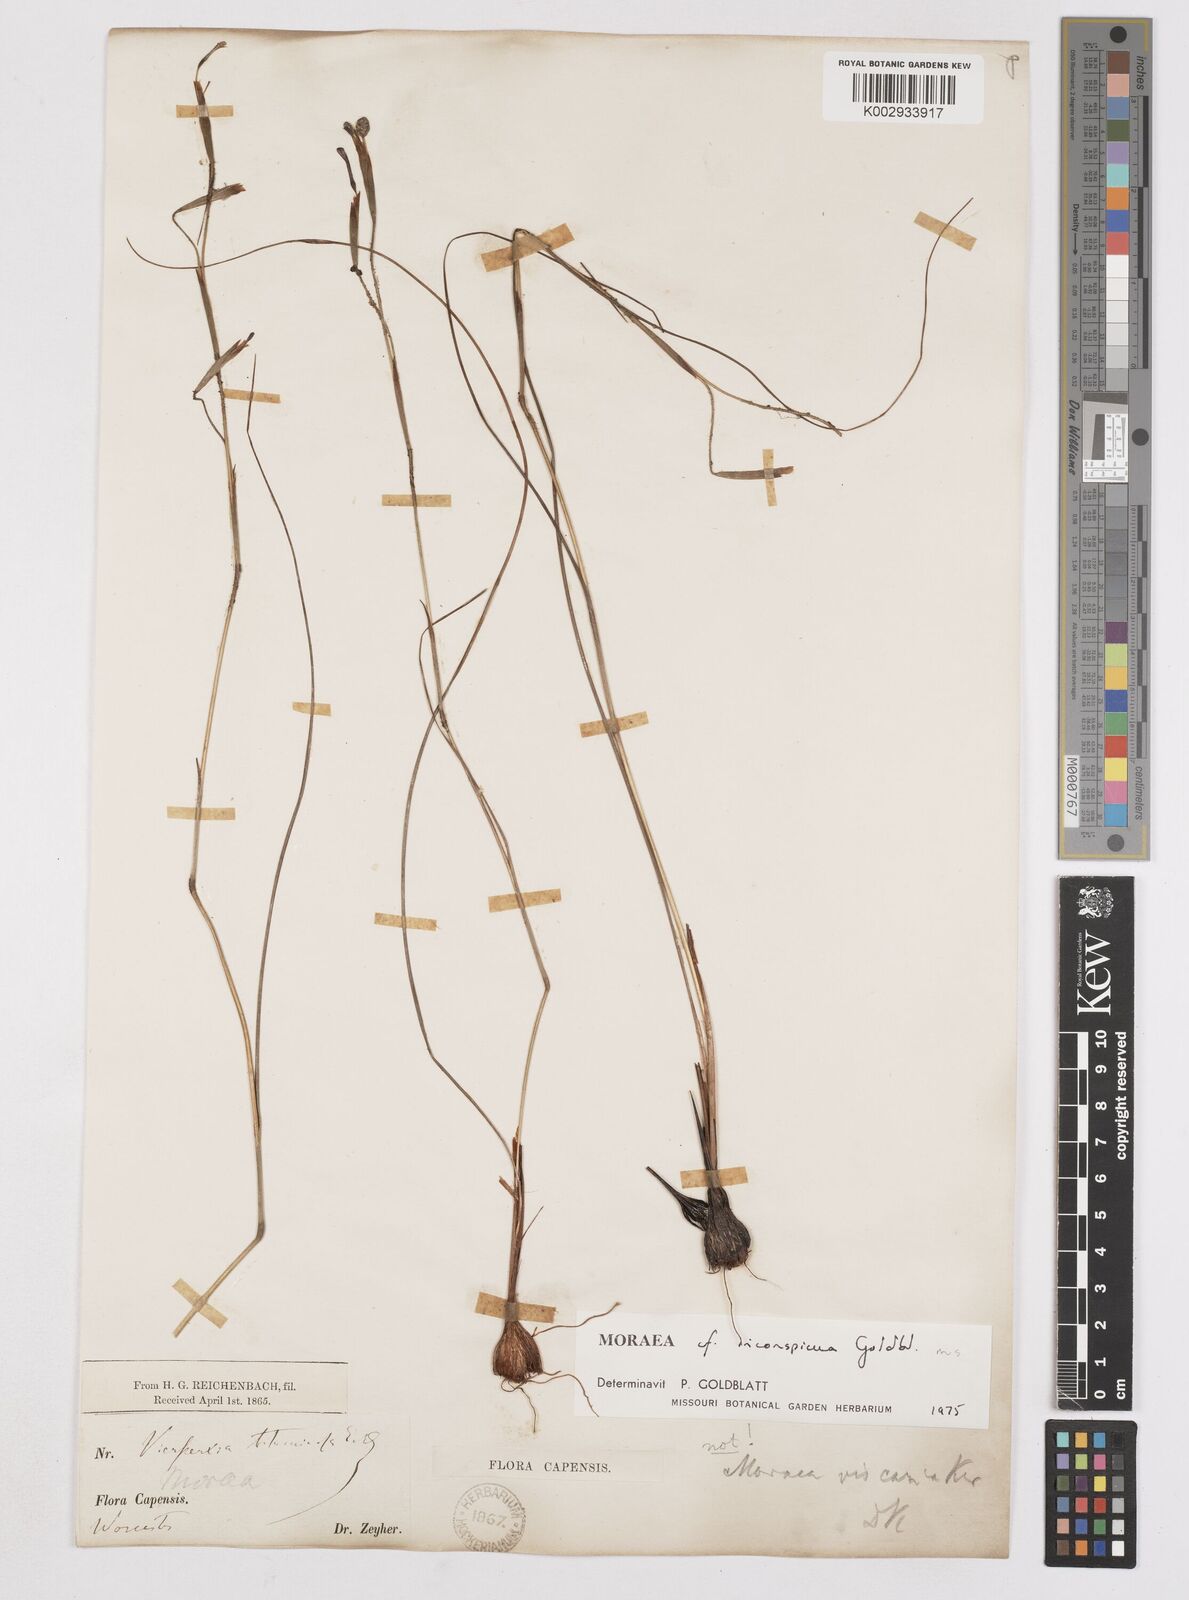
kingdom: Plantae
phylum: Tracheophyta
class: Liliopsida
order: Asparagales
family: Iridaceae
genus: Moraea
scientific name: Moraea inconspicua
